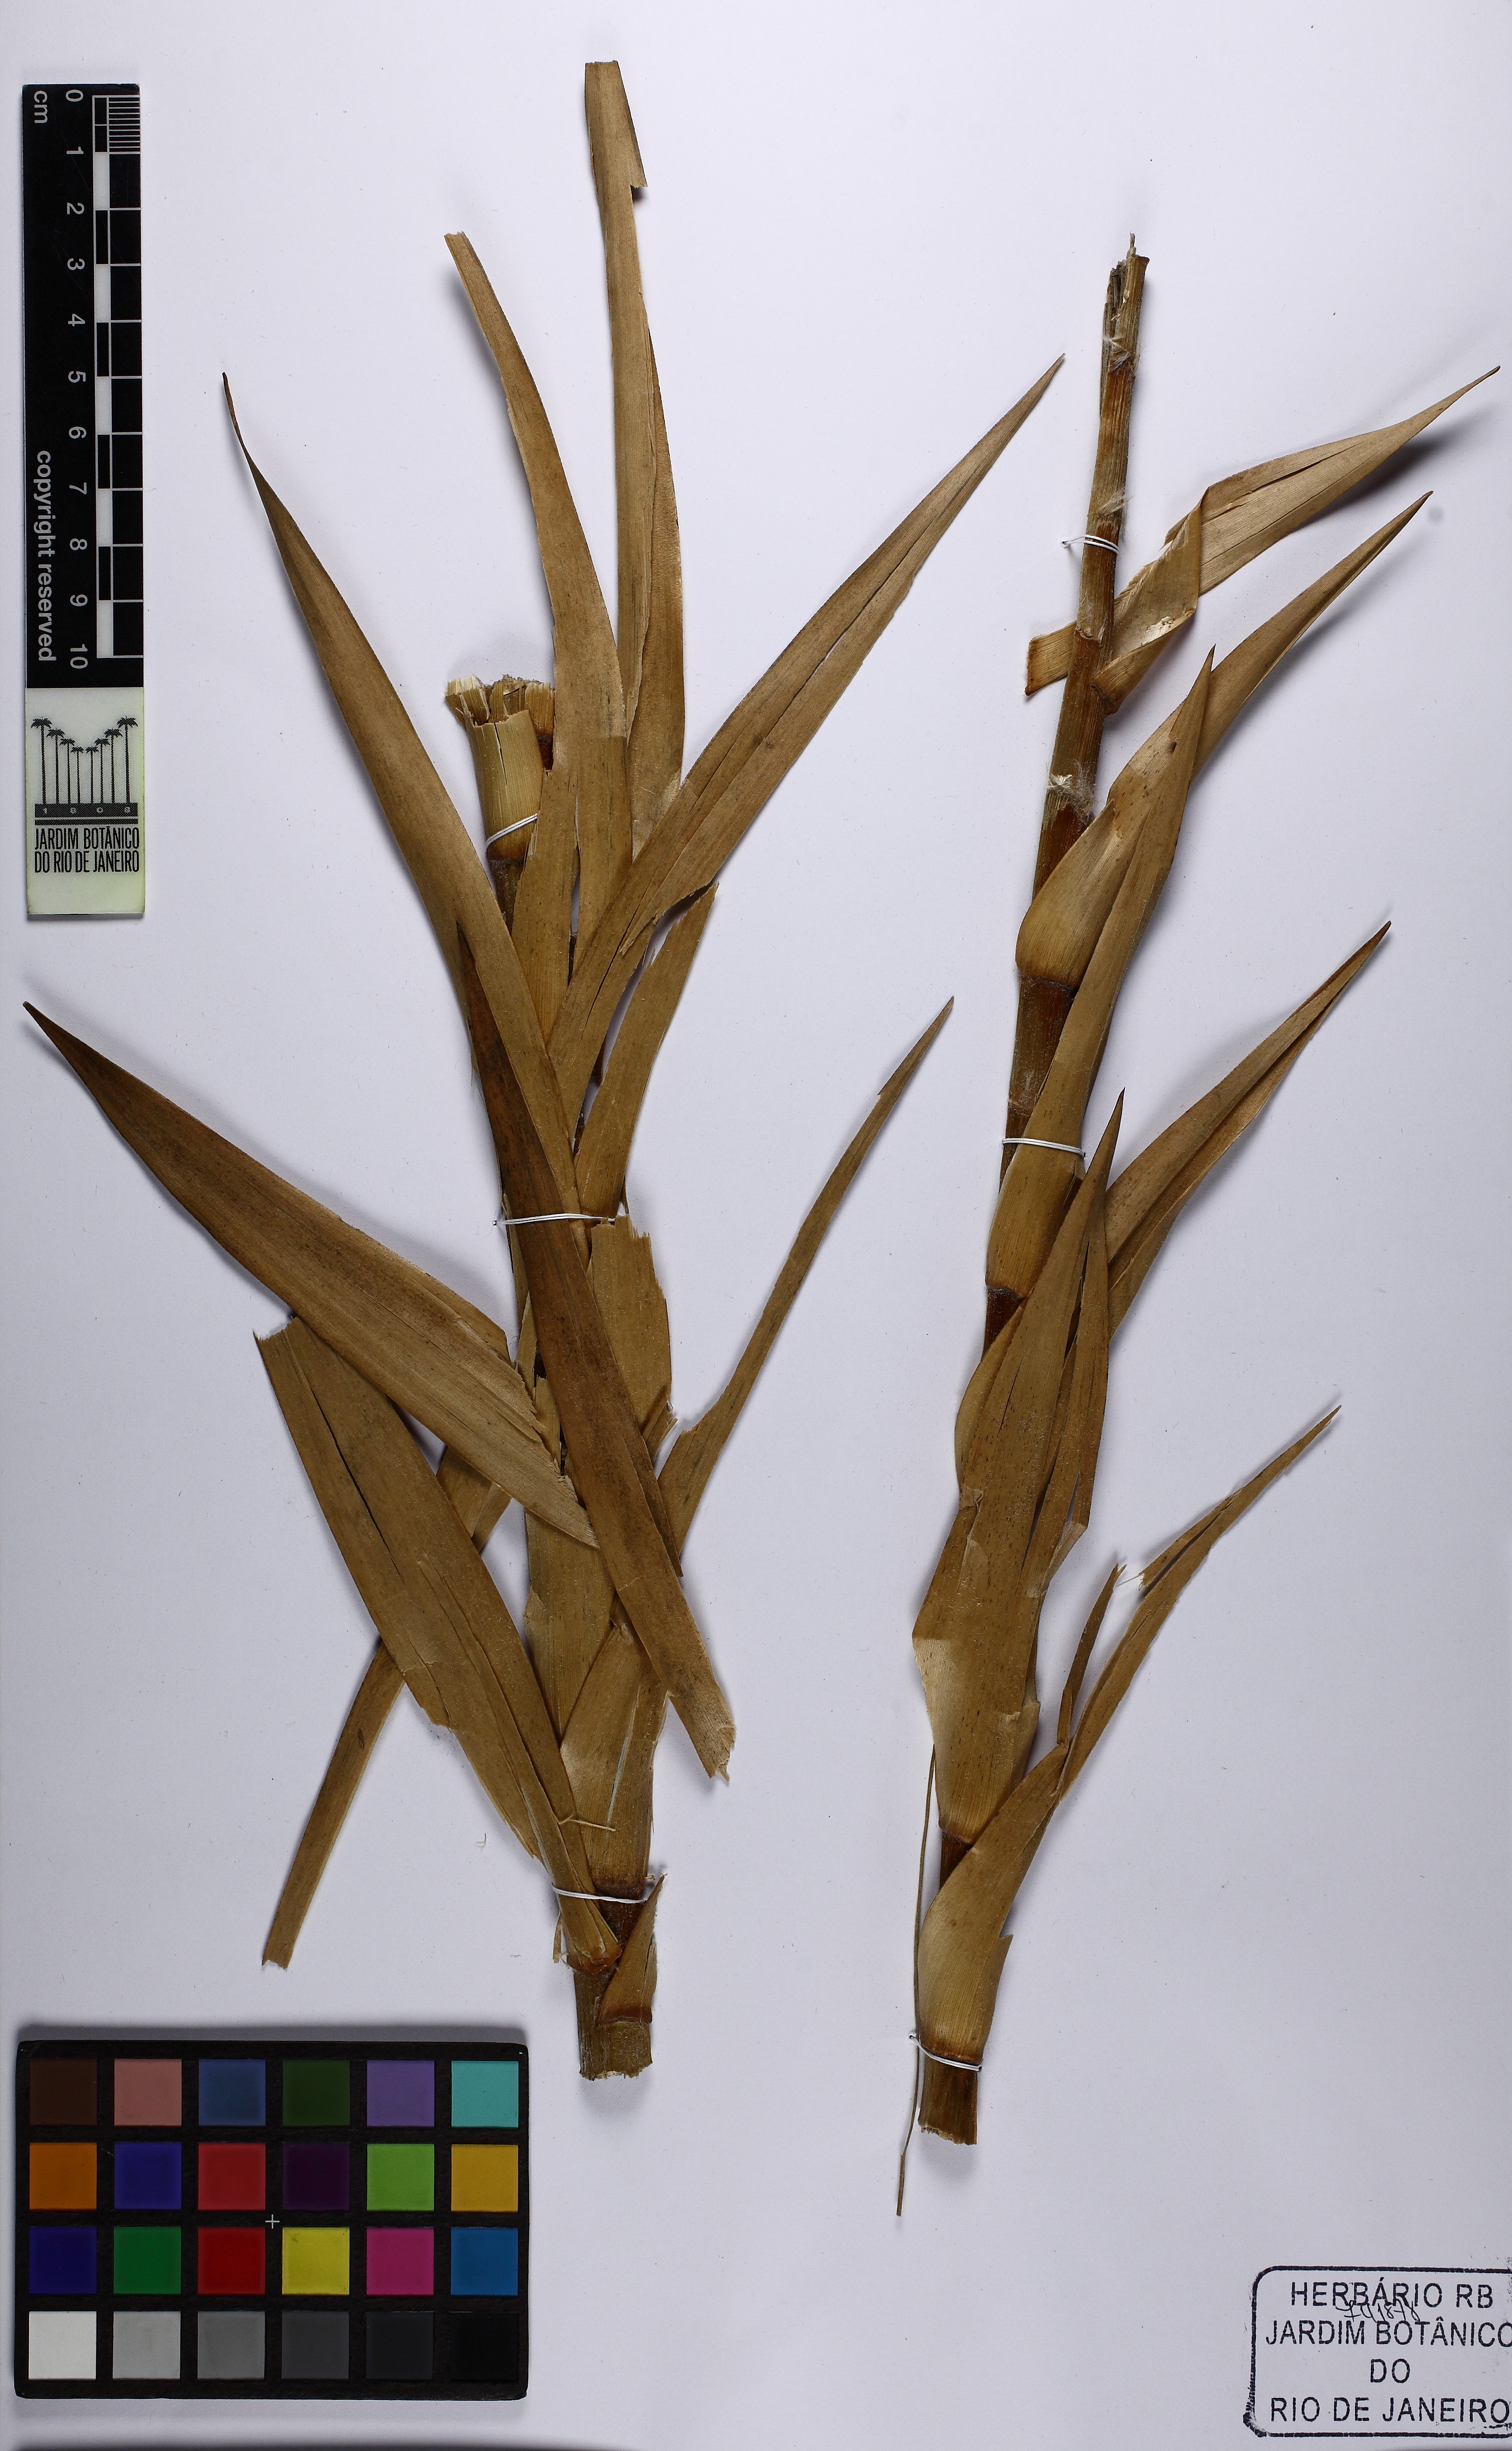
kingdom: Plantae
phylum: Tracheophyta
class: Liliopsida
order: Poales
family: Eriocaulaceae
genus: Paepalanthus
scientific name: Paepalanthus chiquitensis
